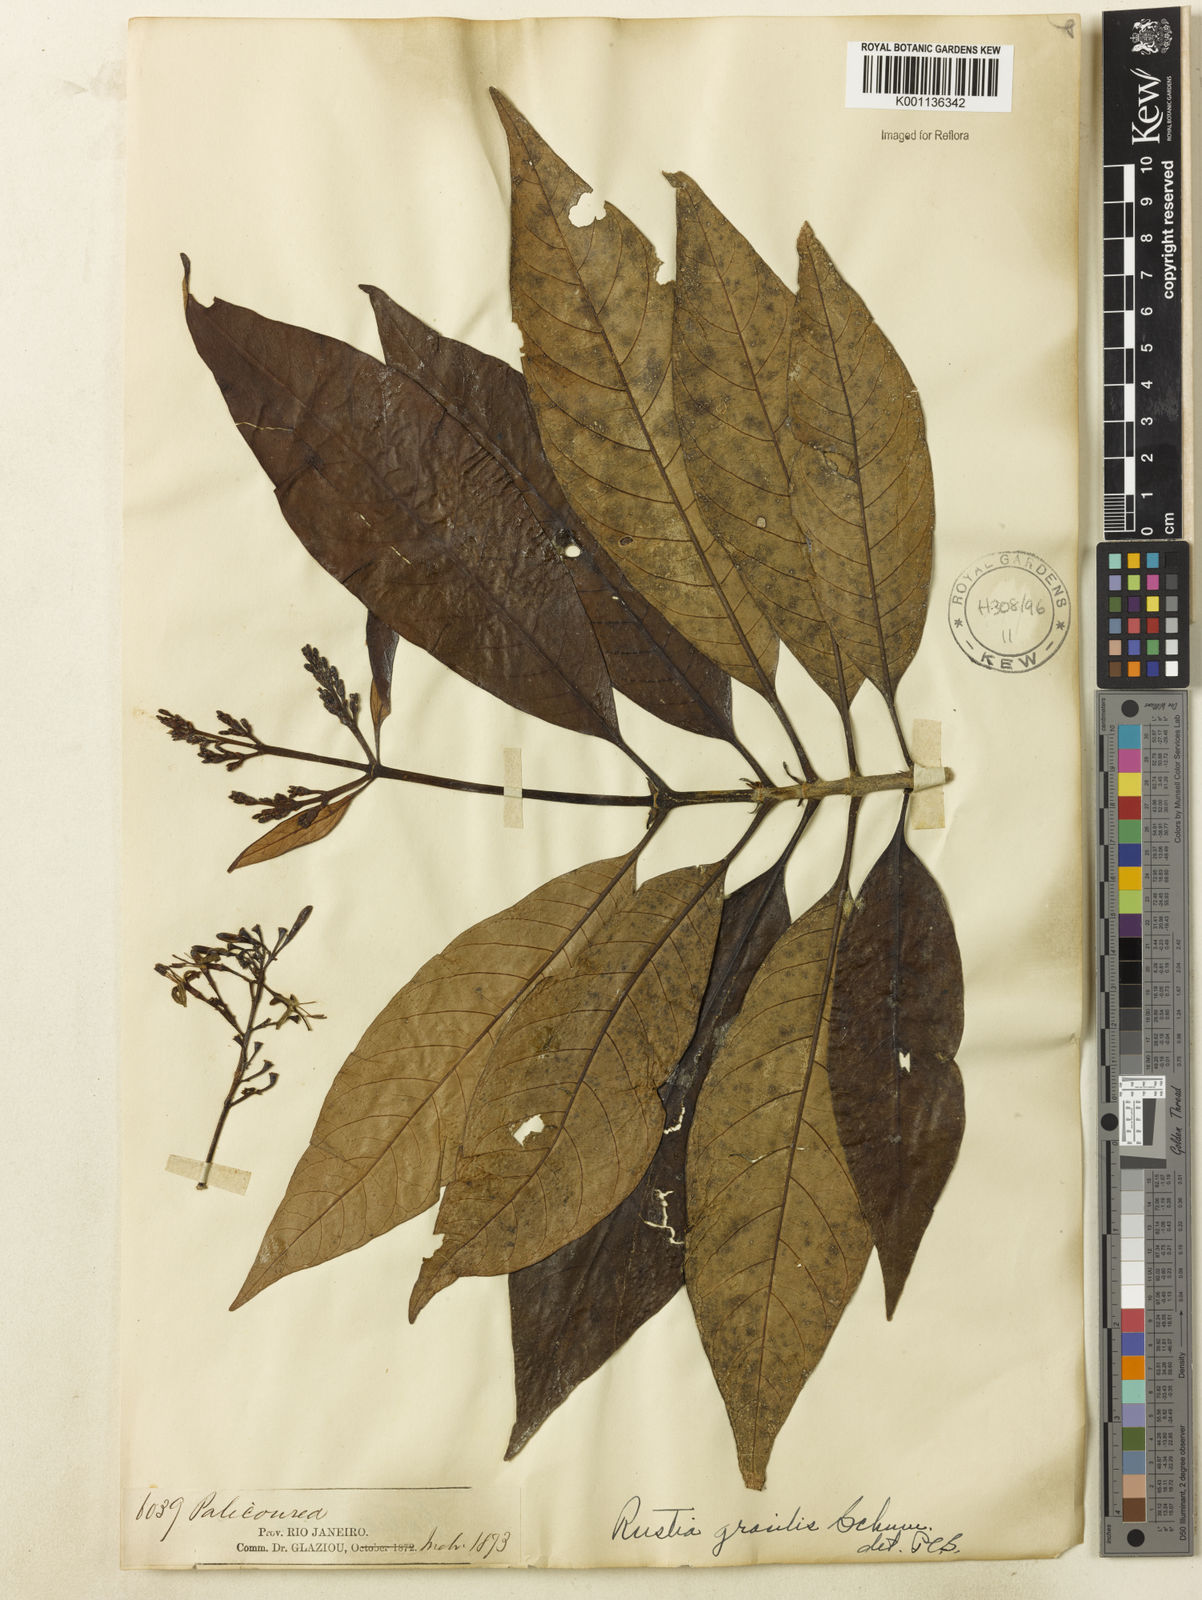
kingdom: Plantae
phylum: Tracheophyta
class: Magnoliopsida
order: Gentianales
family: Rubiaceae
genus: Rustia
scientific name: Rustia gracilis
